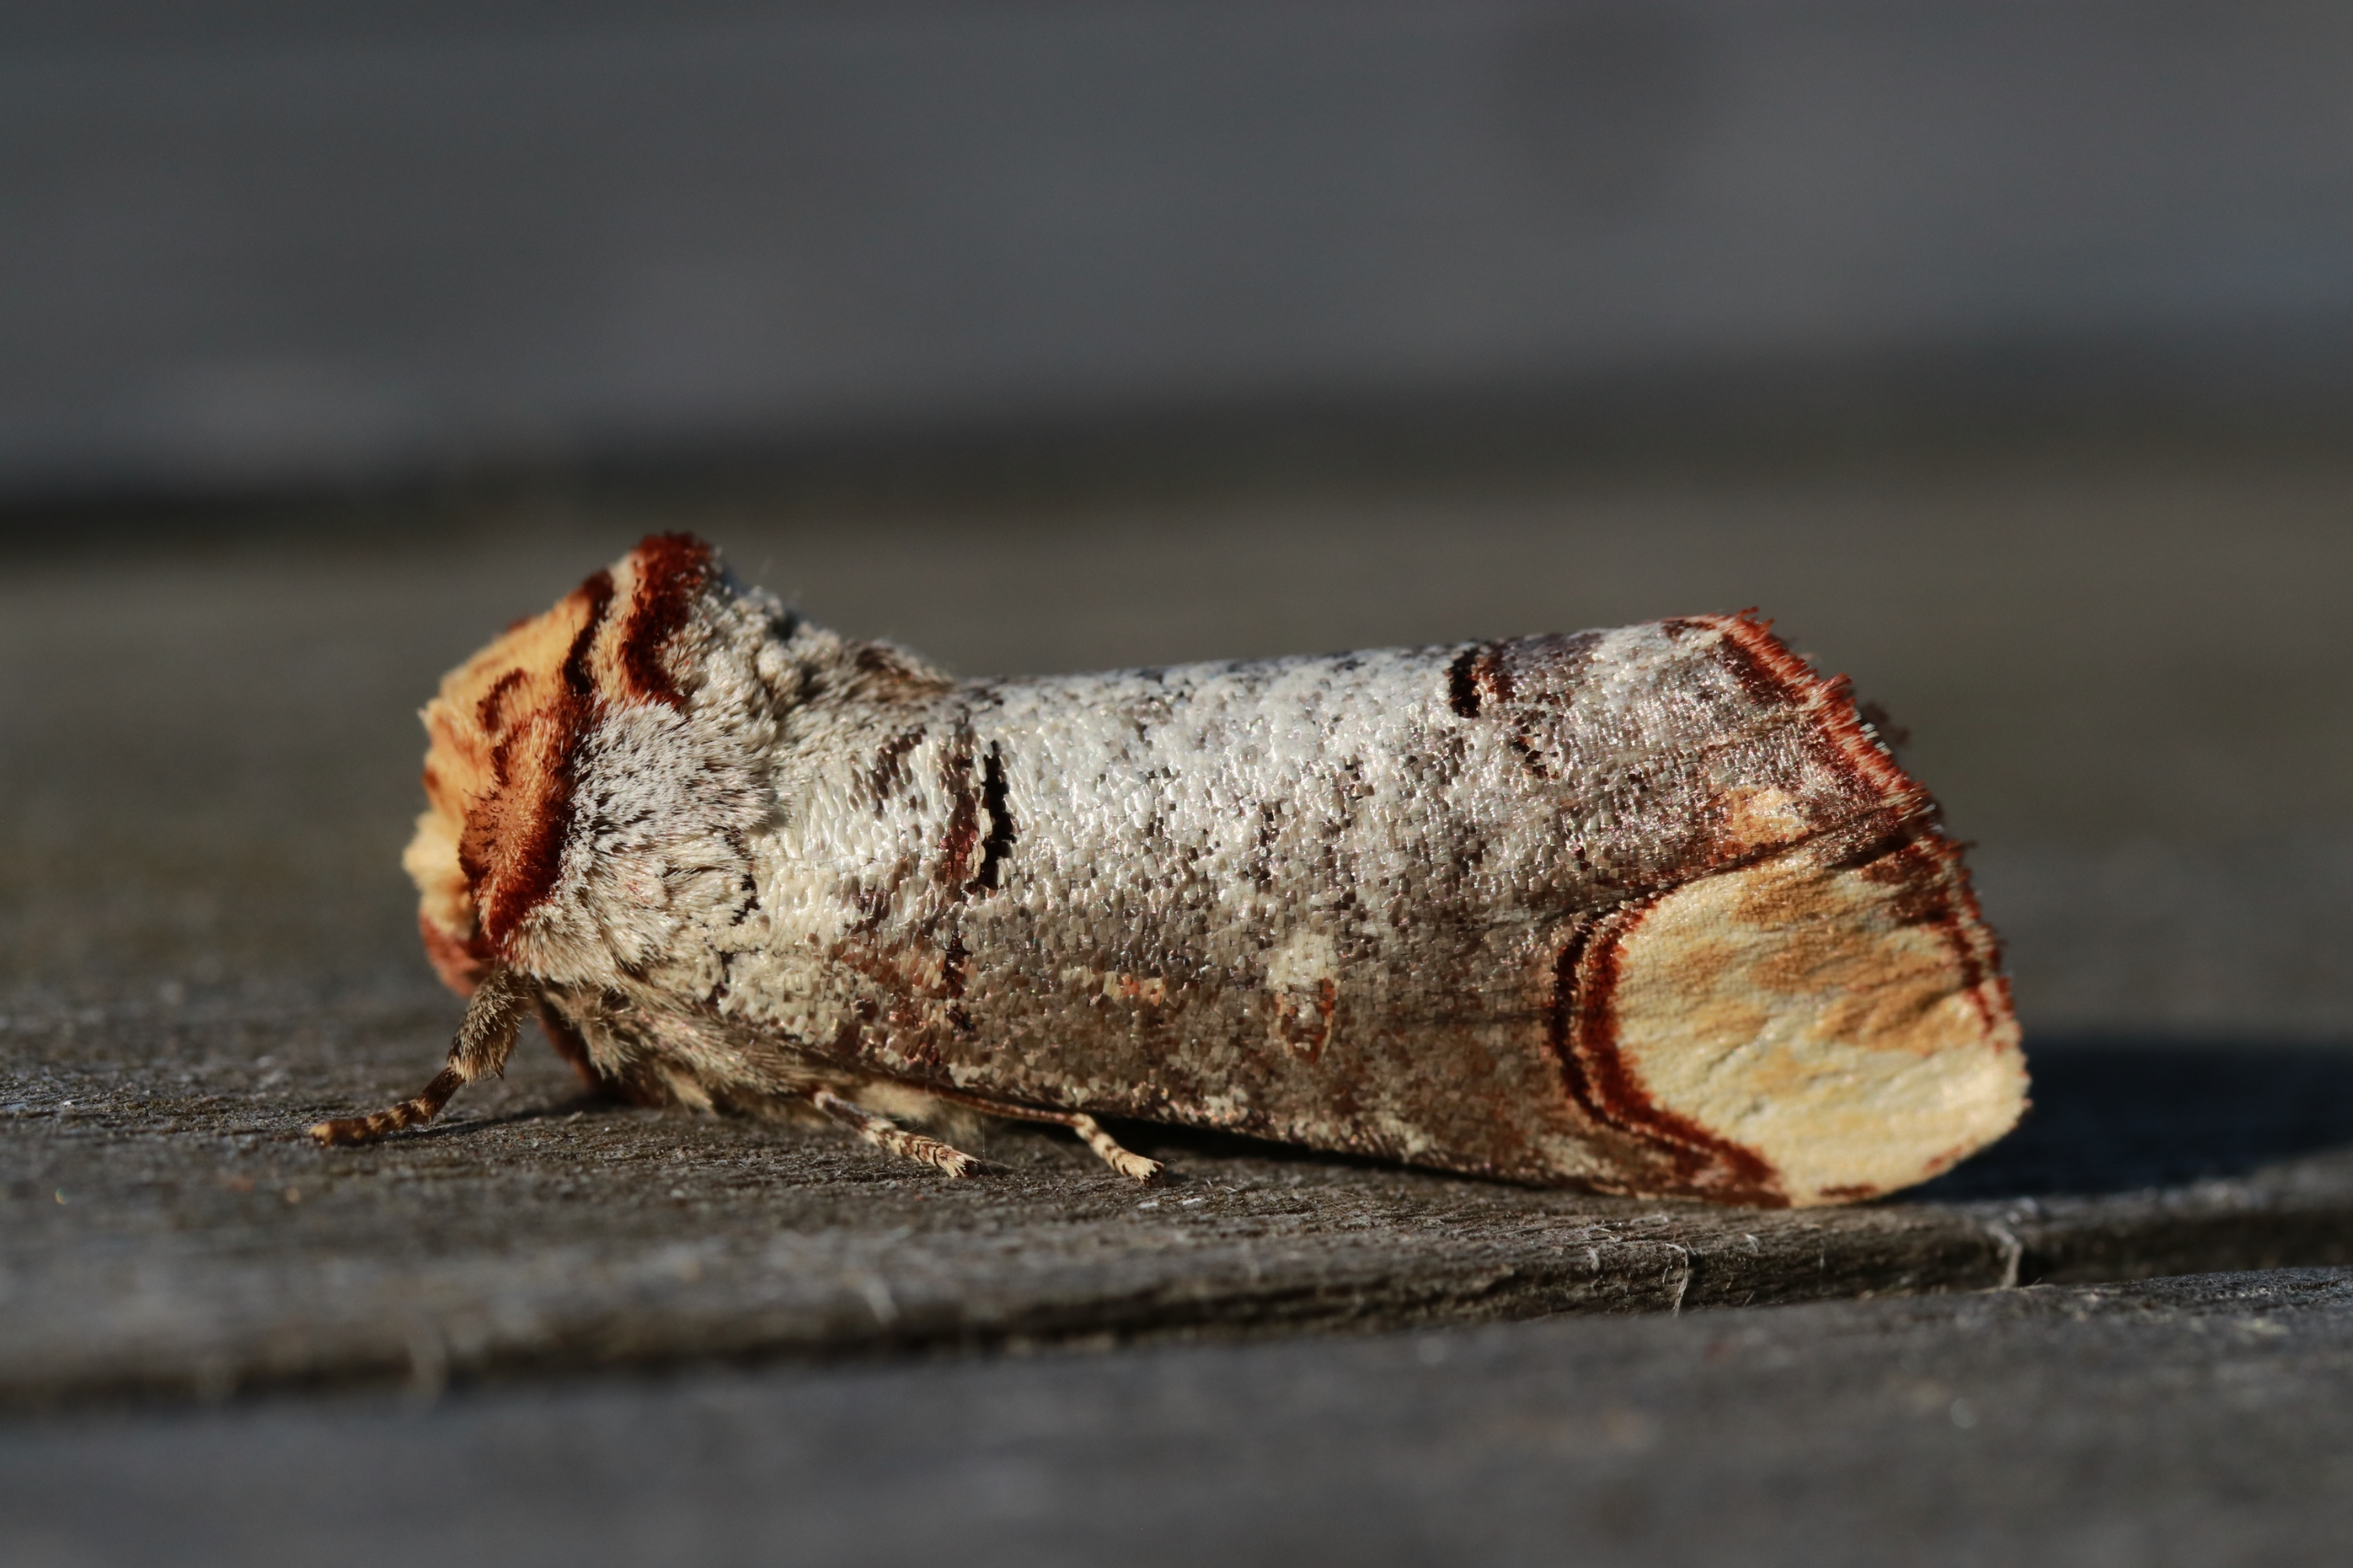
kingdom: Animalia
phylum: Arthropoda
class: Insecta
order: Lepidoptera
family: Notodontidae
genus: Phalera
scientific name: Phalera bucephala
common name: Måneplet
